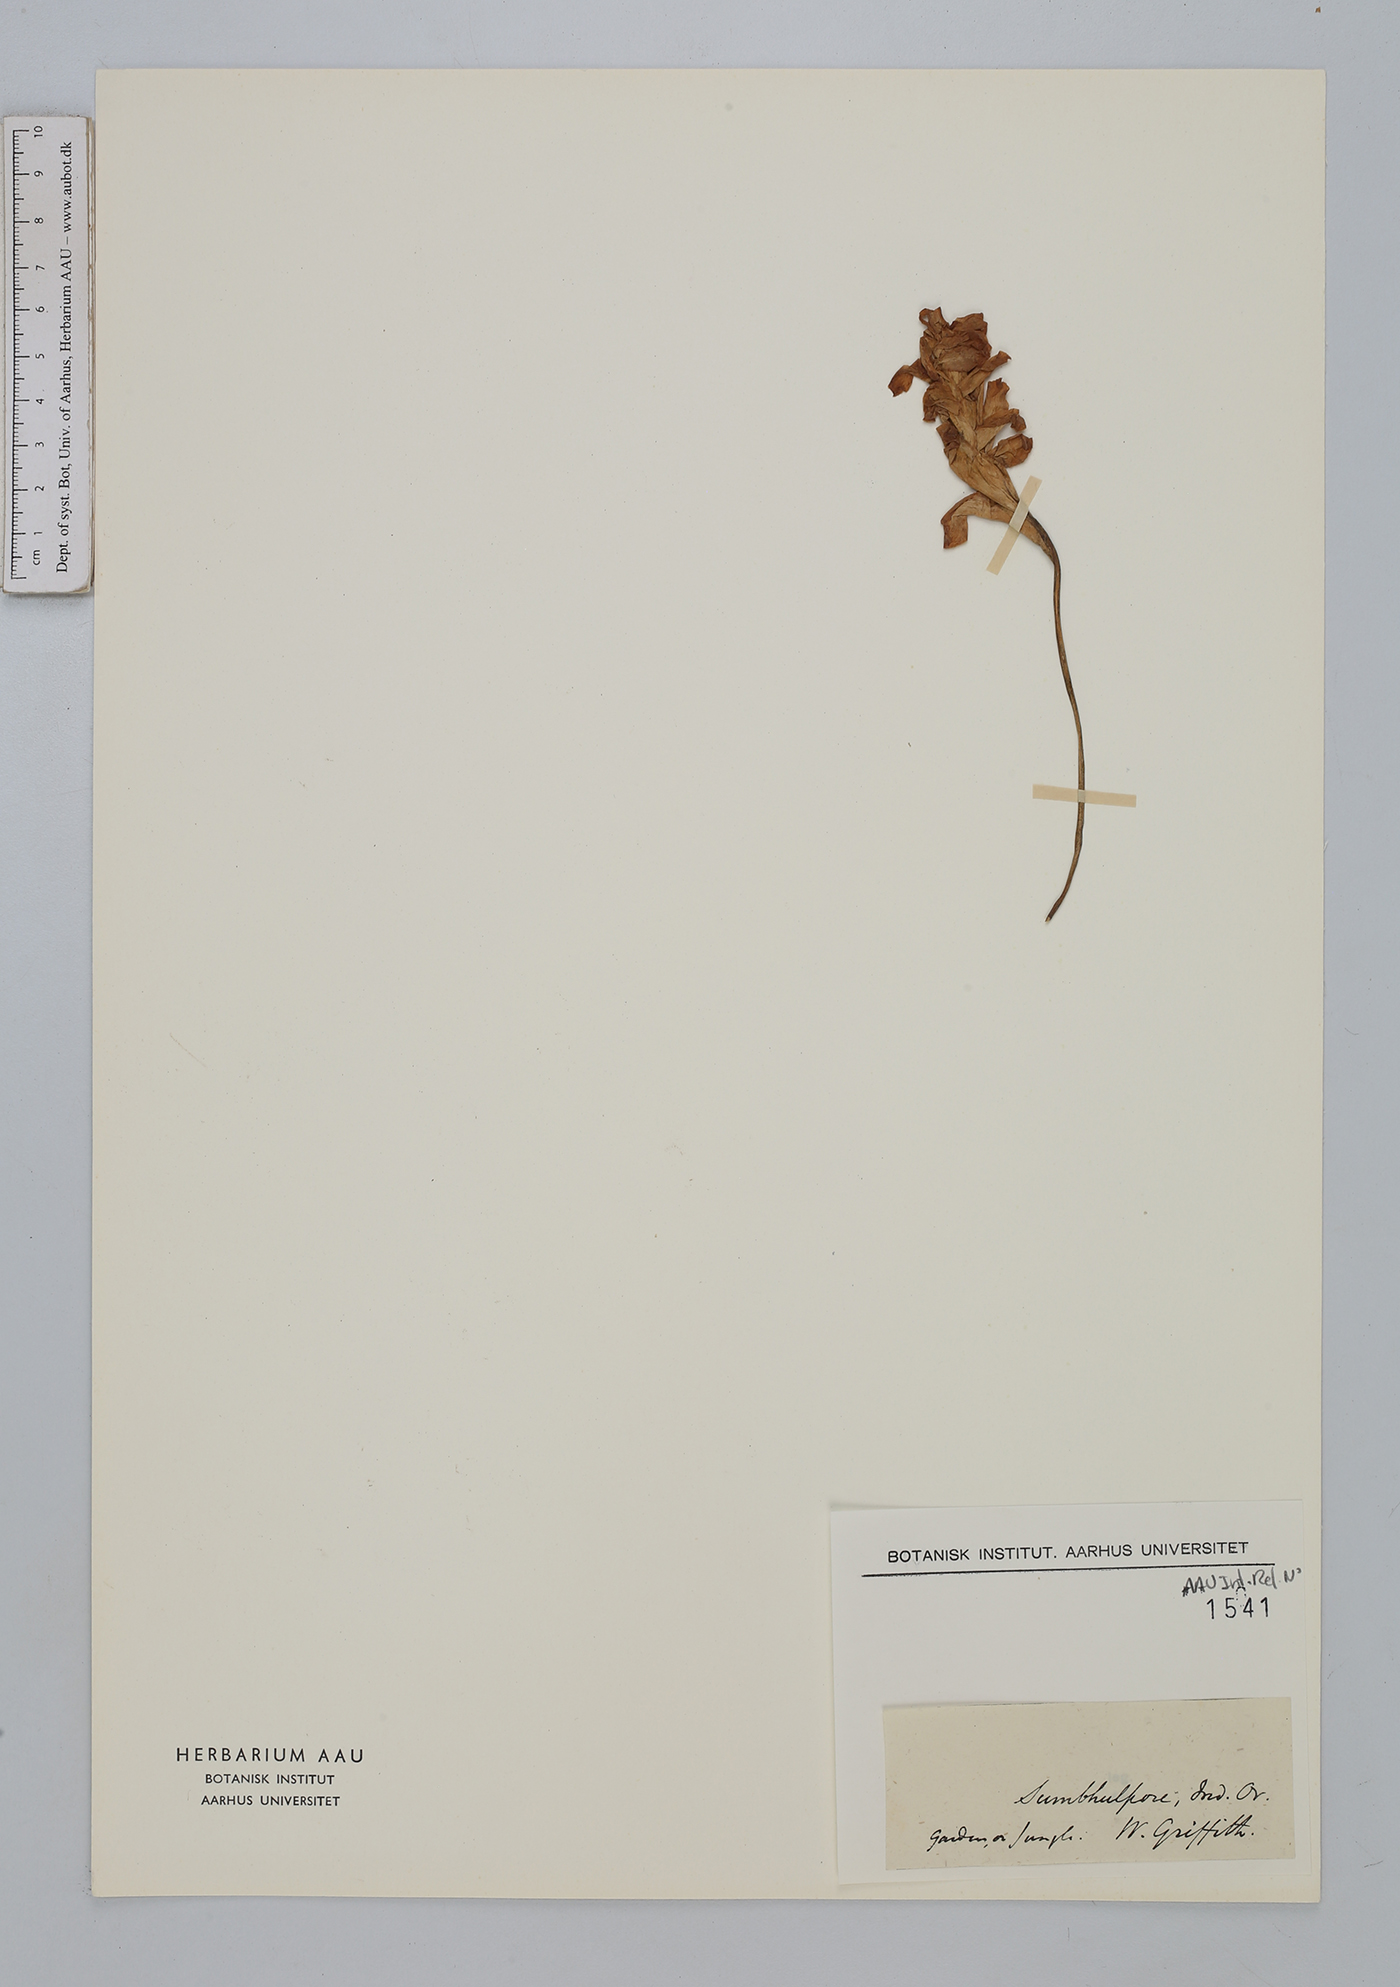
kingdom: Plantae
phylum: Tracheophyta
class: Liliopsida
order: Zingiberales
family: Zingiberaceae
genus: Curcuma
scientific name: Curcuma
